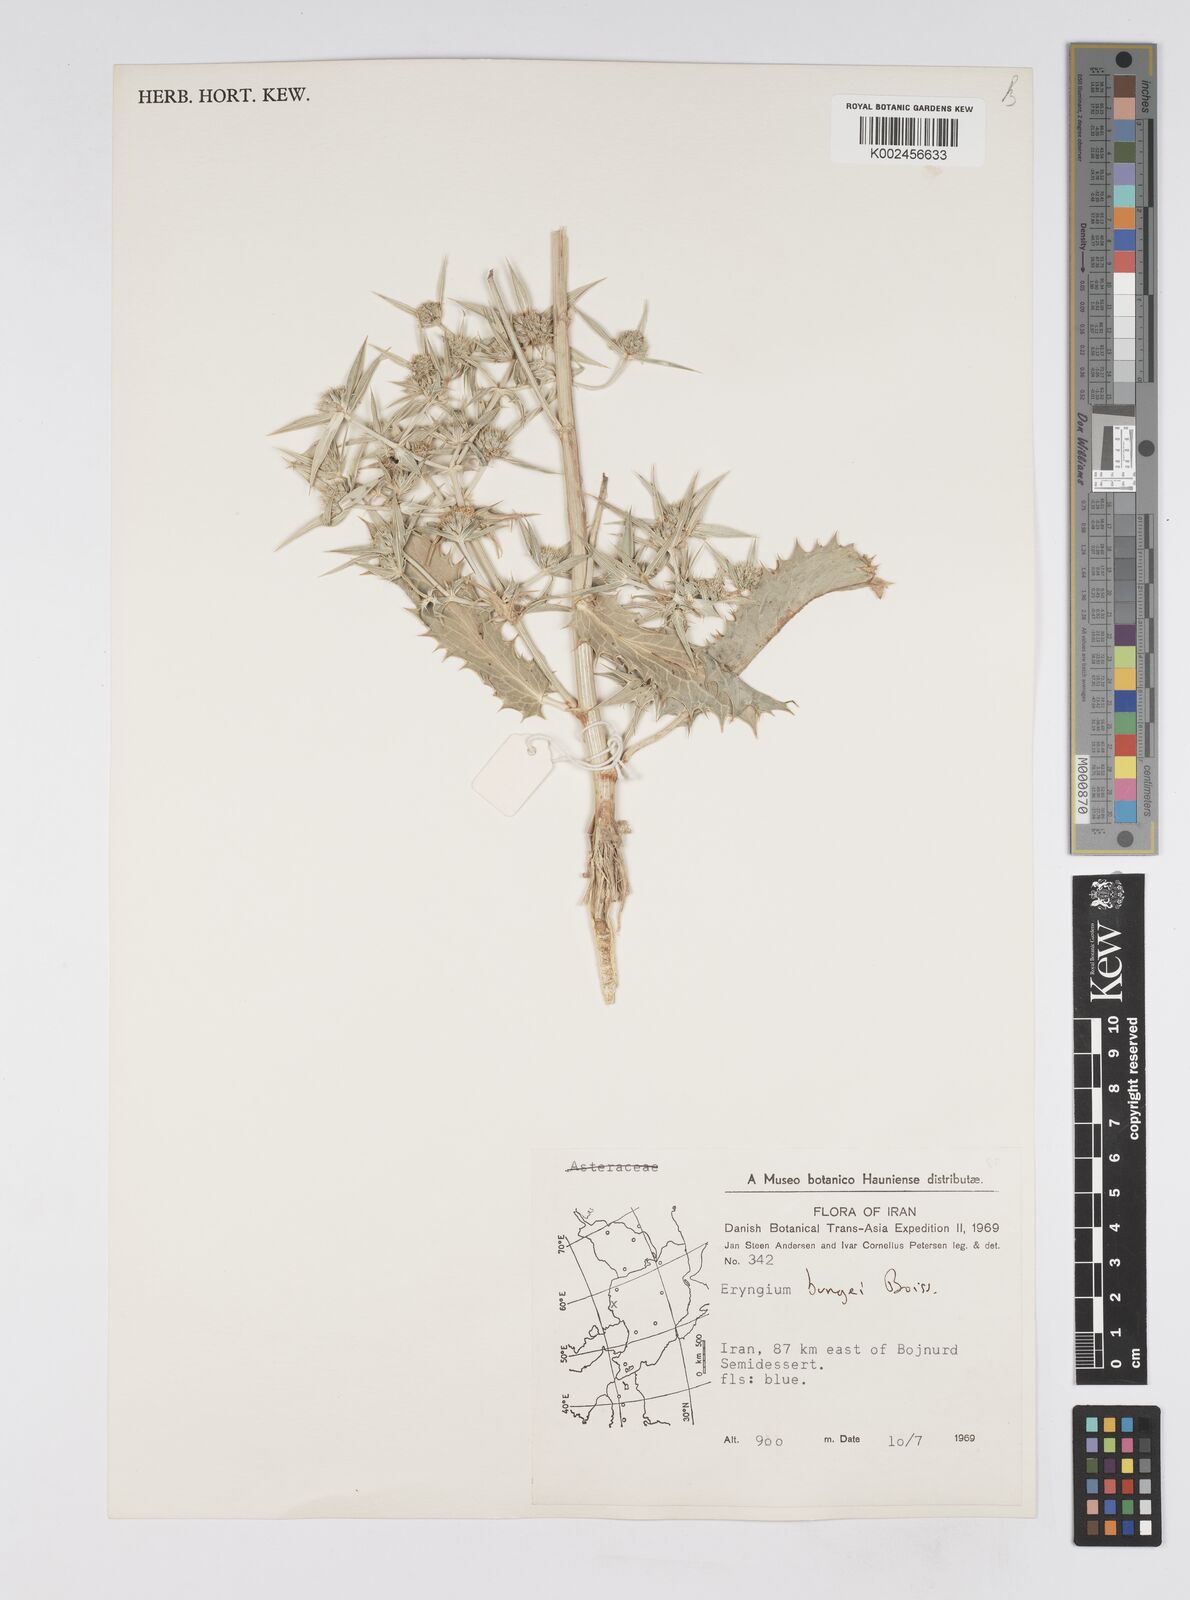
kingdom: Plantae
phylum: Tracheophyta
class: Magnoliopsida
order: Apiales
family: Apiaceae
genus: Eryngium
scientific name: Eryngium bungei
